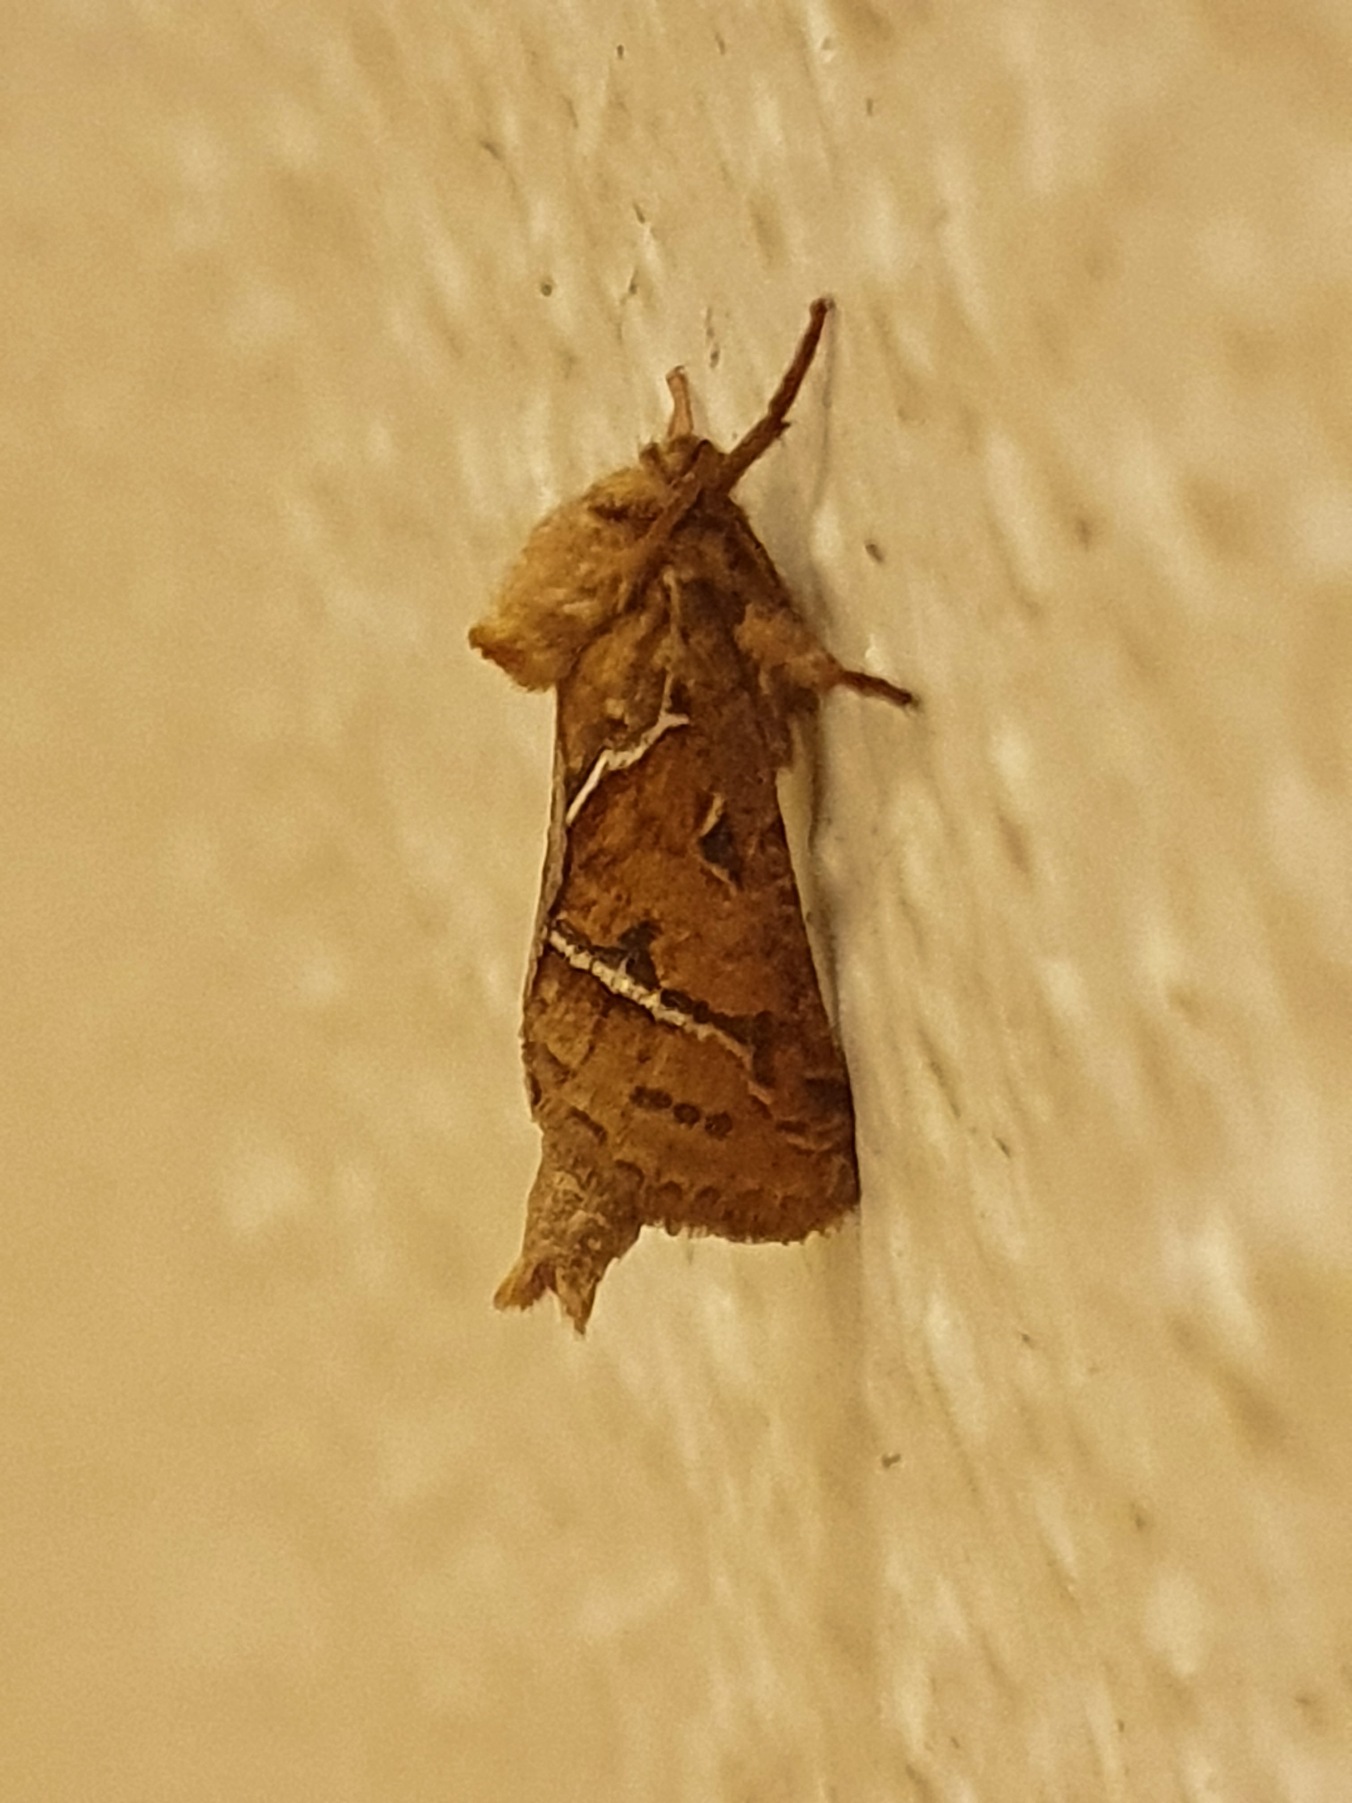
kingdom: Animalia
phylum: Arthropoda
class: Insecta
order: Lepidoptera
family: Hepialidae
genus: Triodia
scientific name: Triodia sylvina
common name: Skræpperodæder
